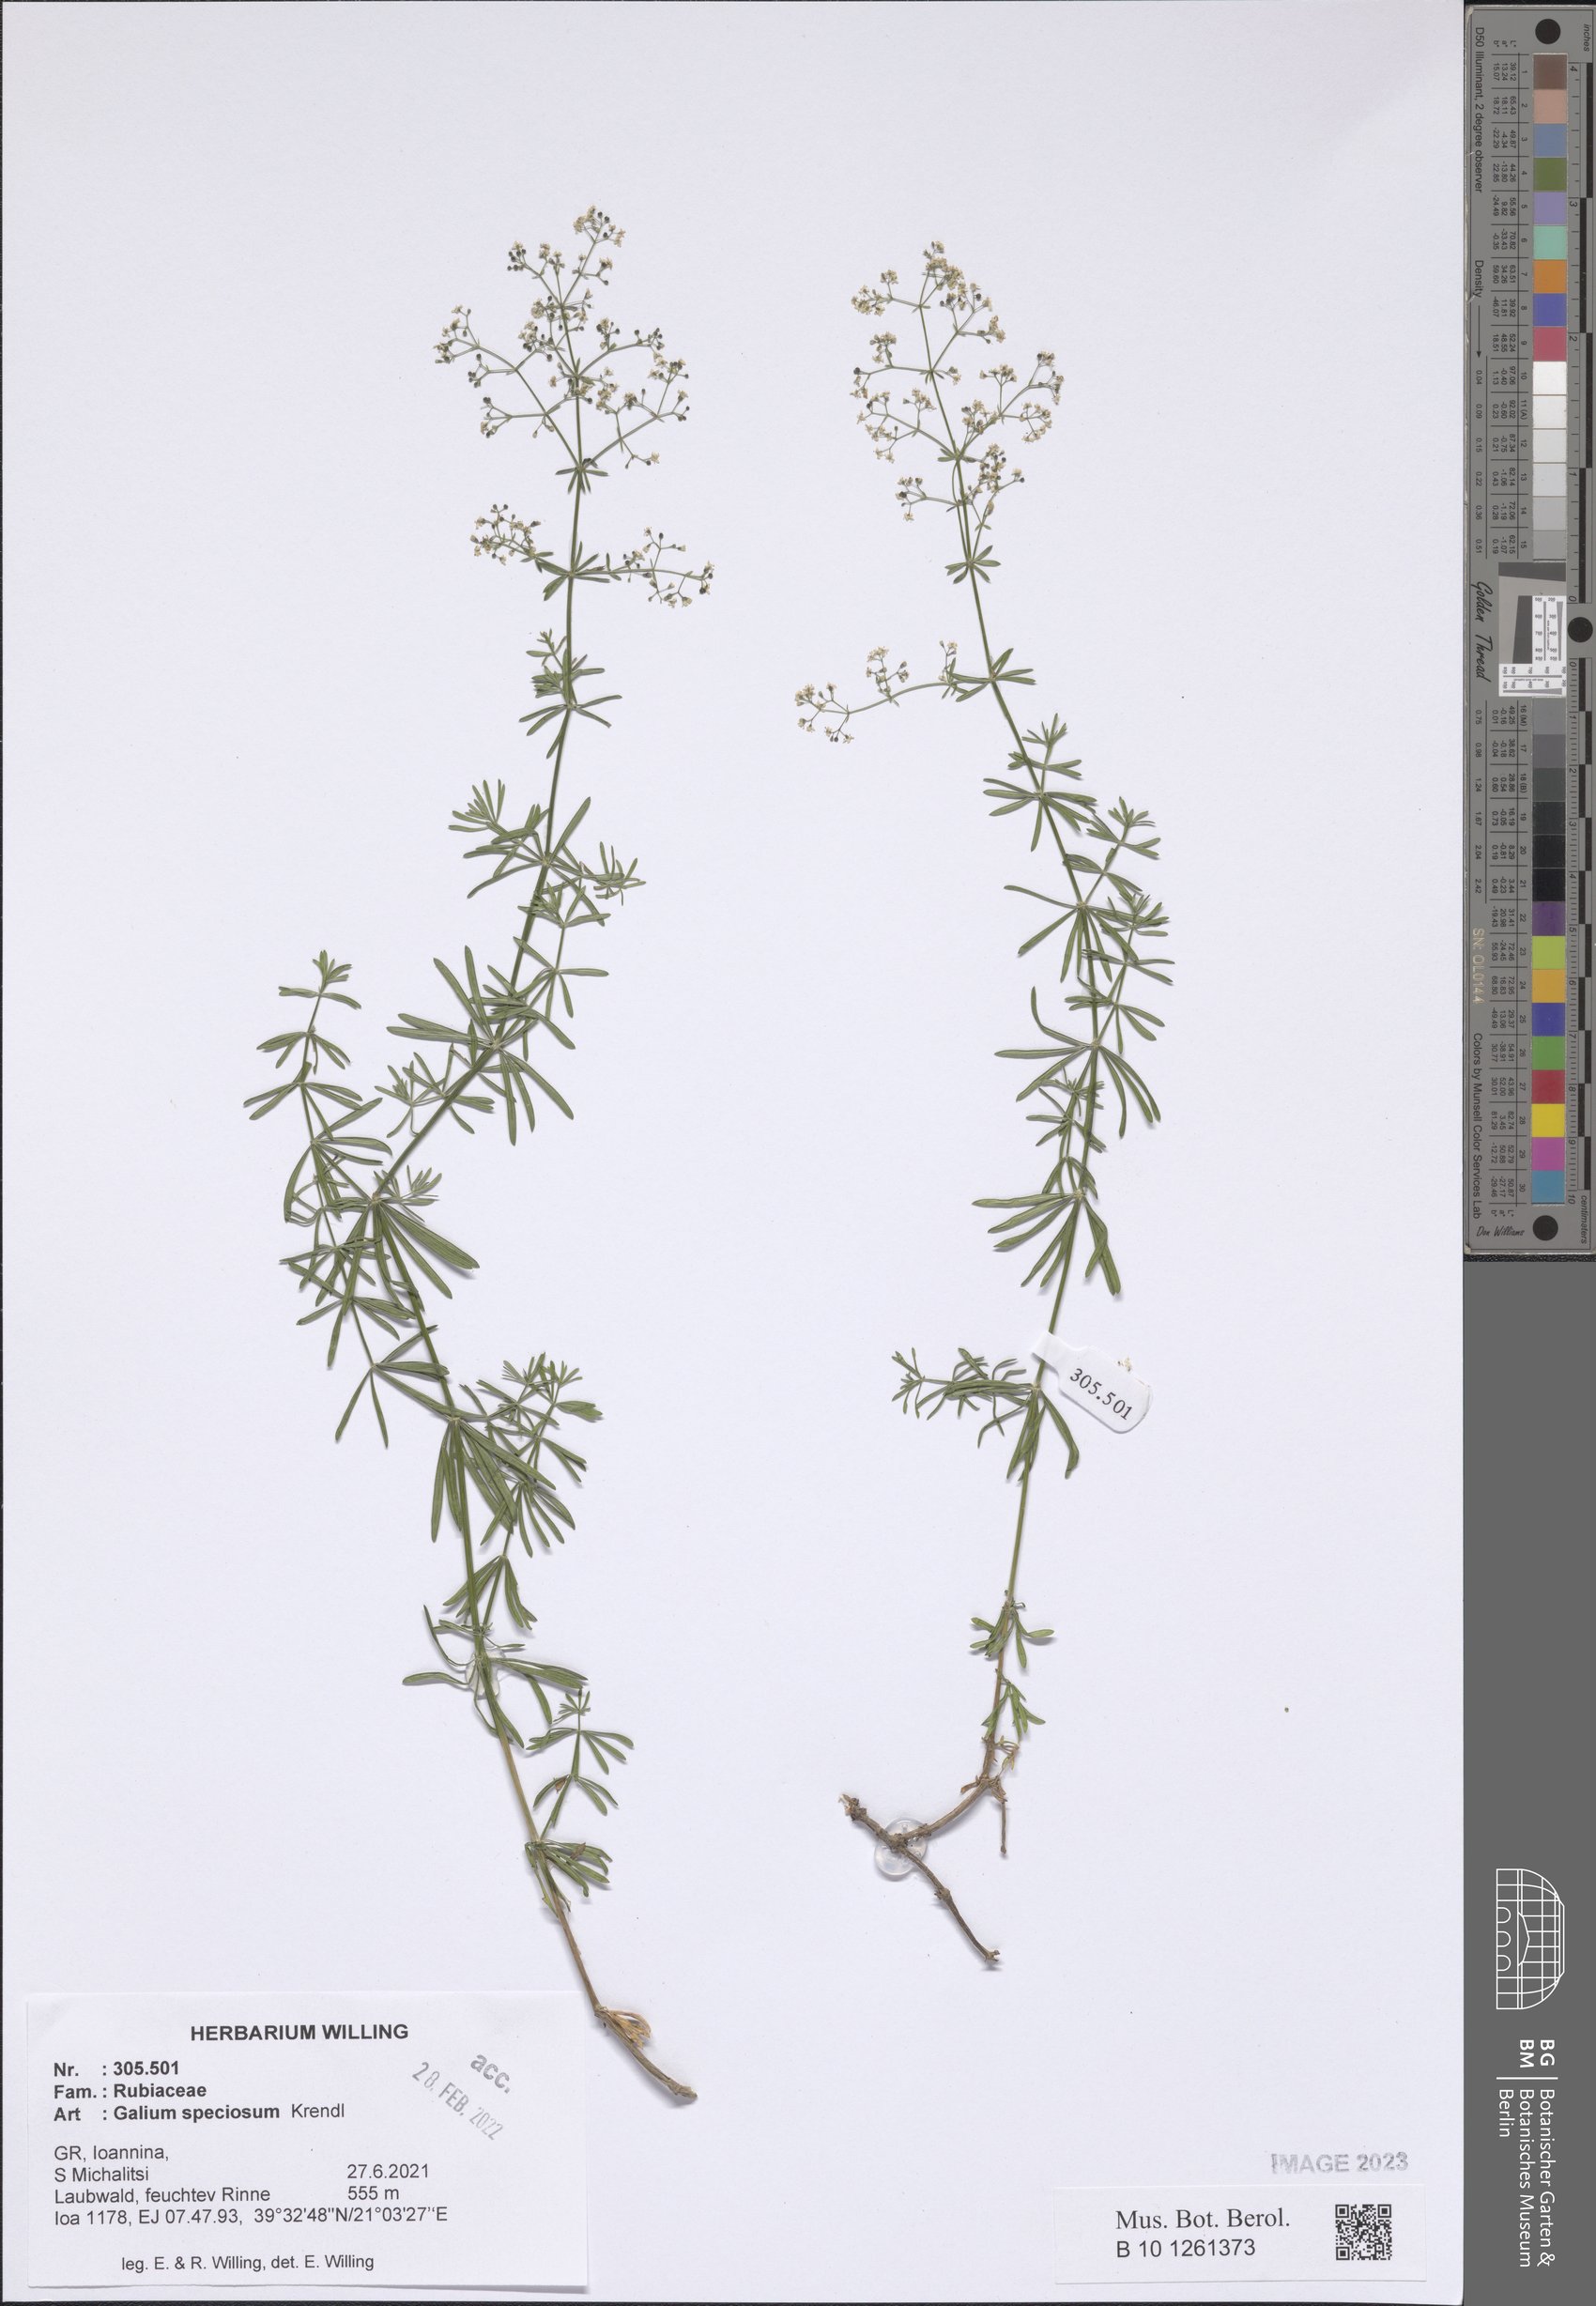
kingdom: Plantae
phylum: Tracheophyta
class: Magnoliopsida
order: Gentianales
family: Rubiaceae
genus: Galium
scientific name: Galium speciosum
